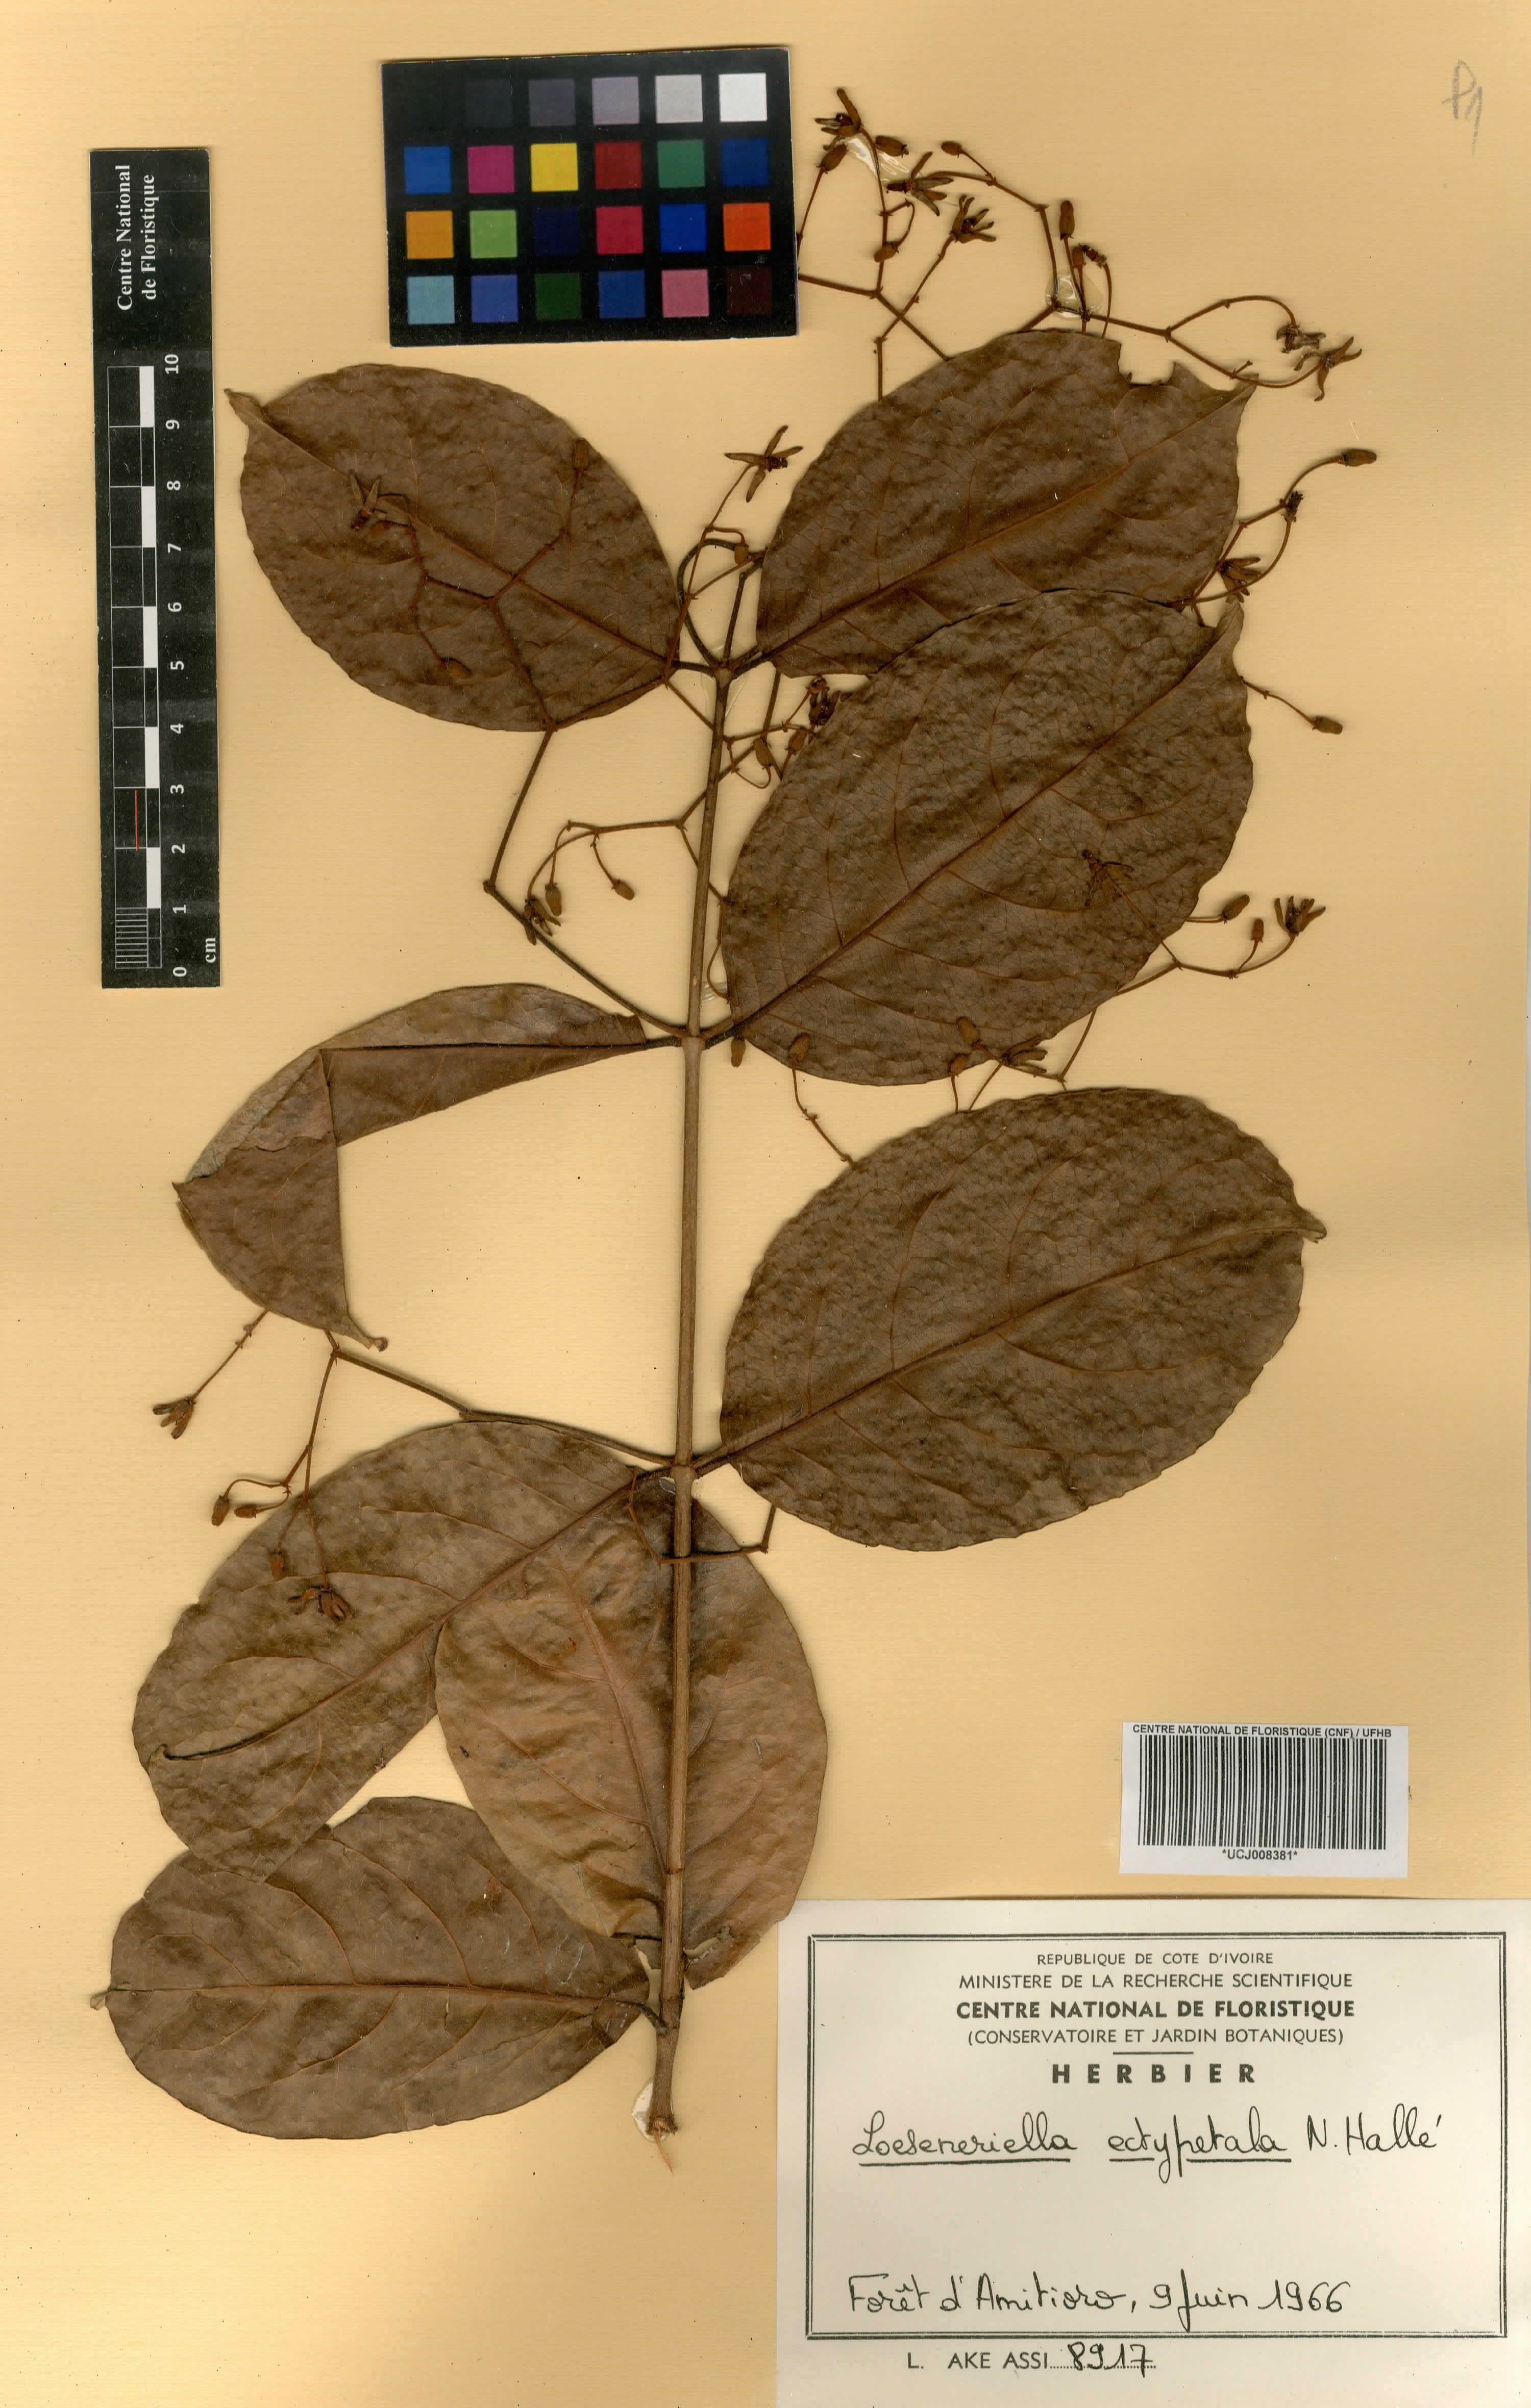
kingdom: Plantae
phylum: Tracheophyta
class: Magnoliopsida
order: Celastrales
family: Celastraceae
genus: Loeseneriella
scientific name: Loeseneriella ectypopetala
